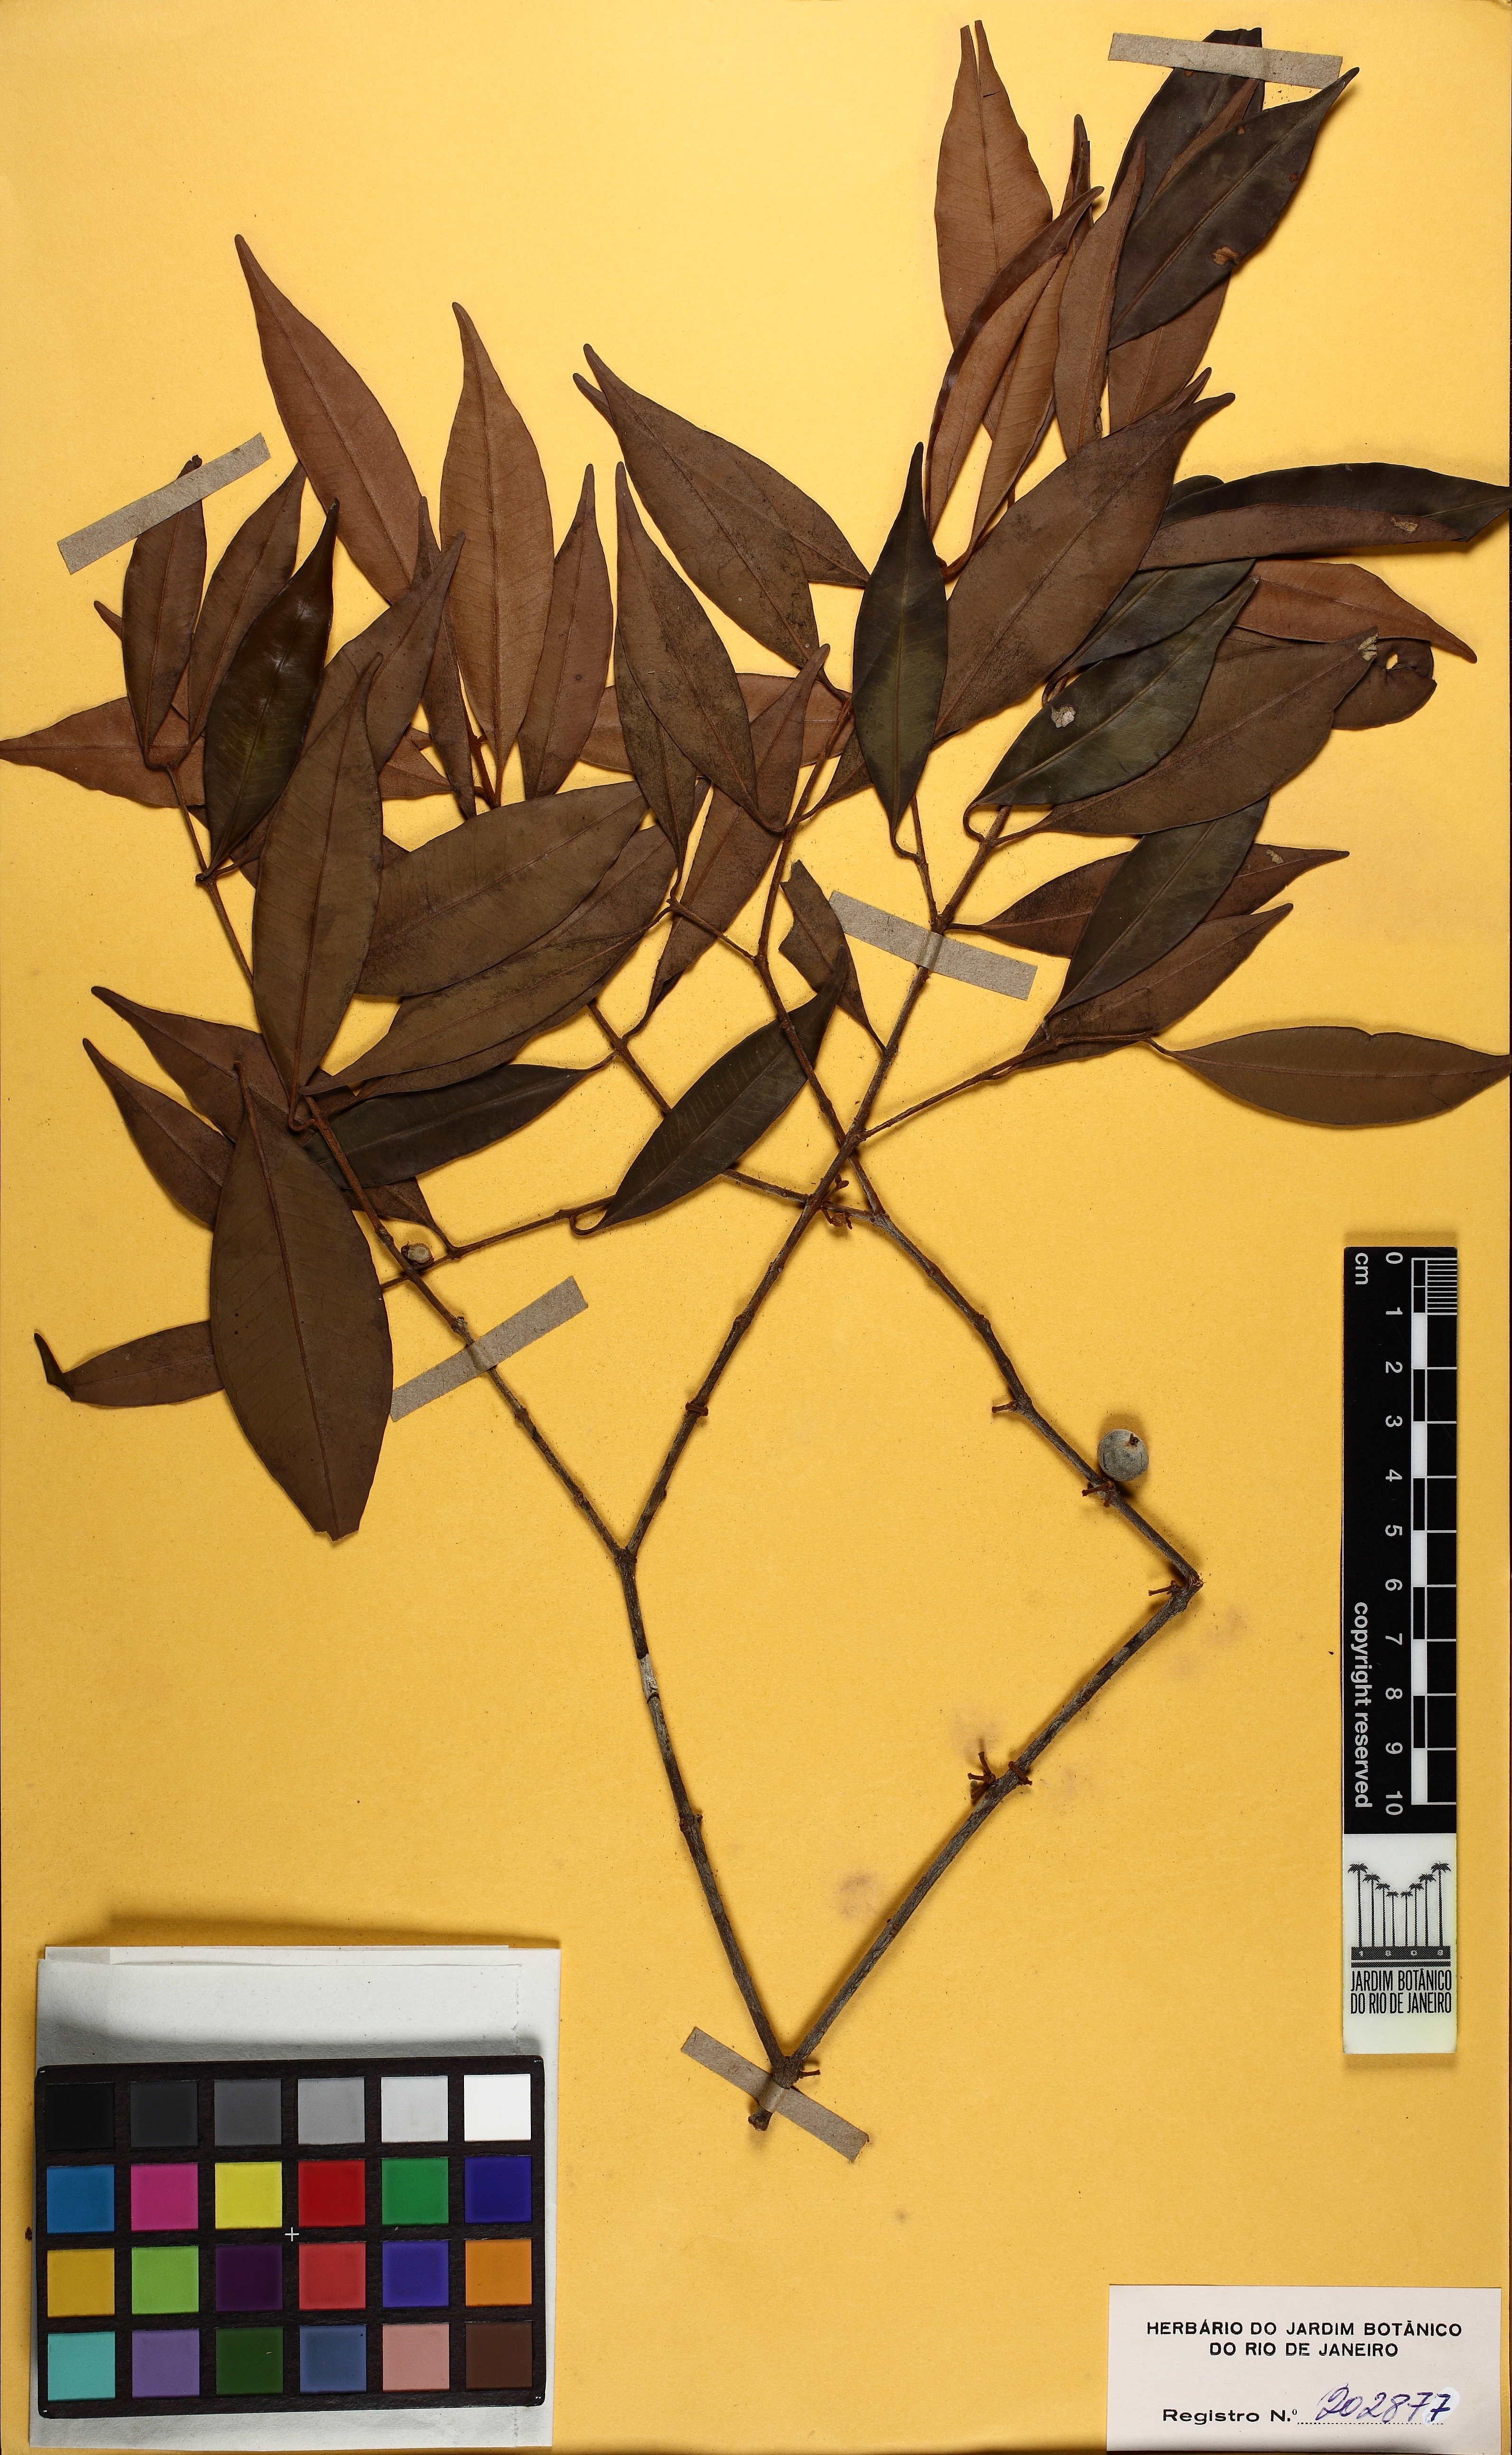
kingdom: Plantae
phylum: Tracheophyta
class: Magnoliopsida
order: Myrtales
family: Myrtaceae
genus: Eugenia
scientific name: Eugenia ramiflora
